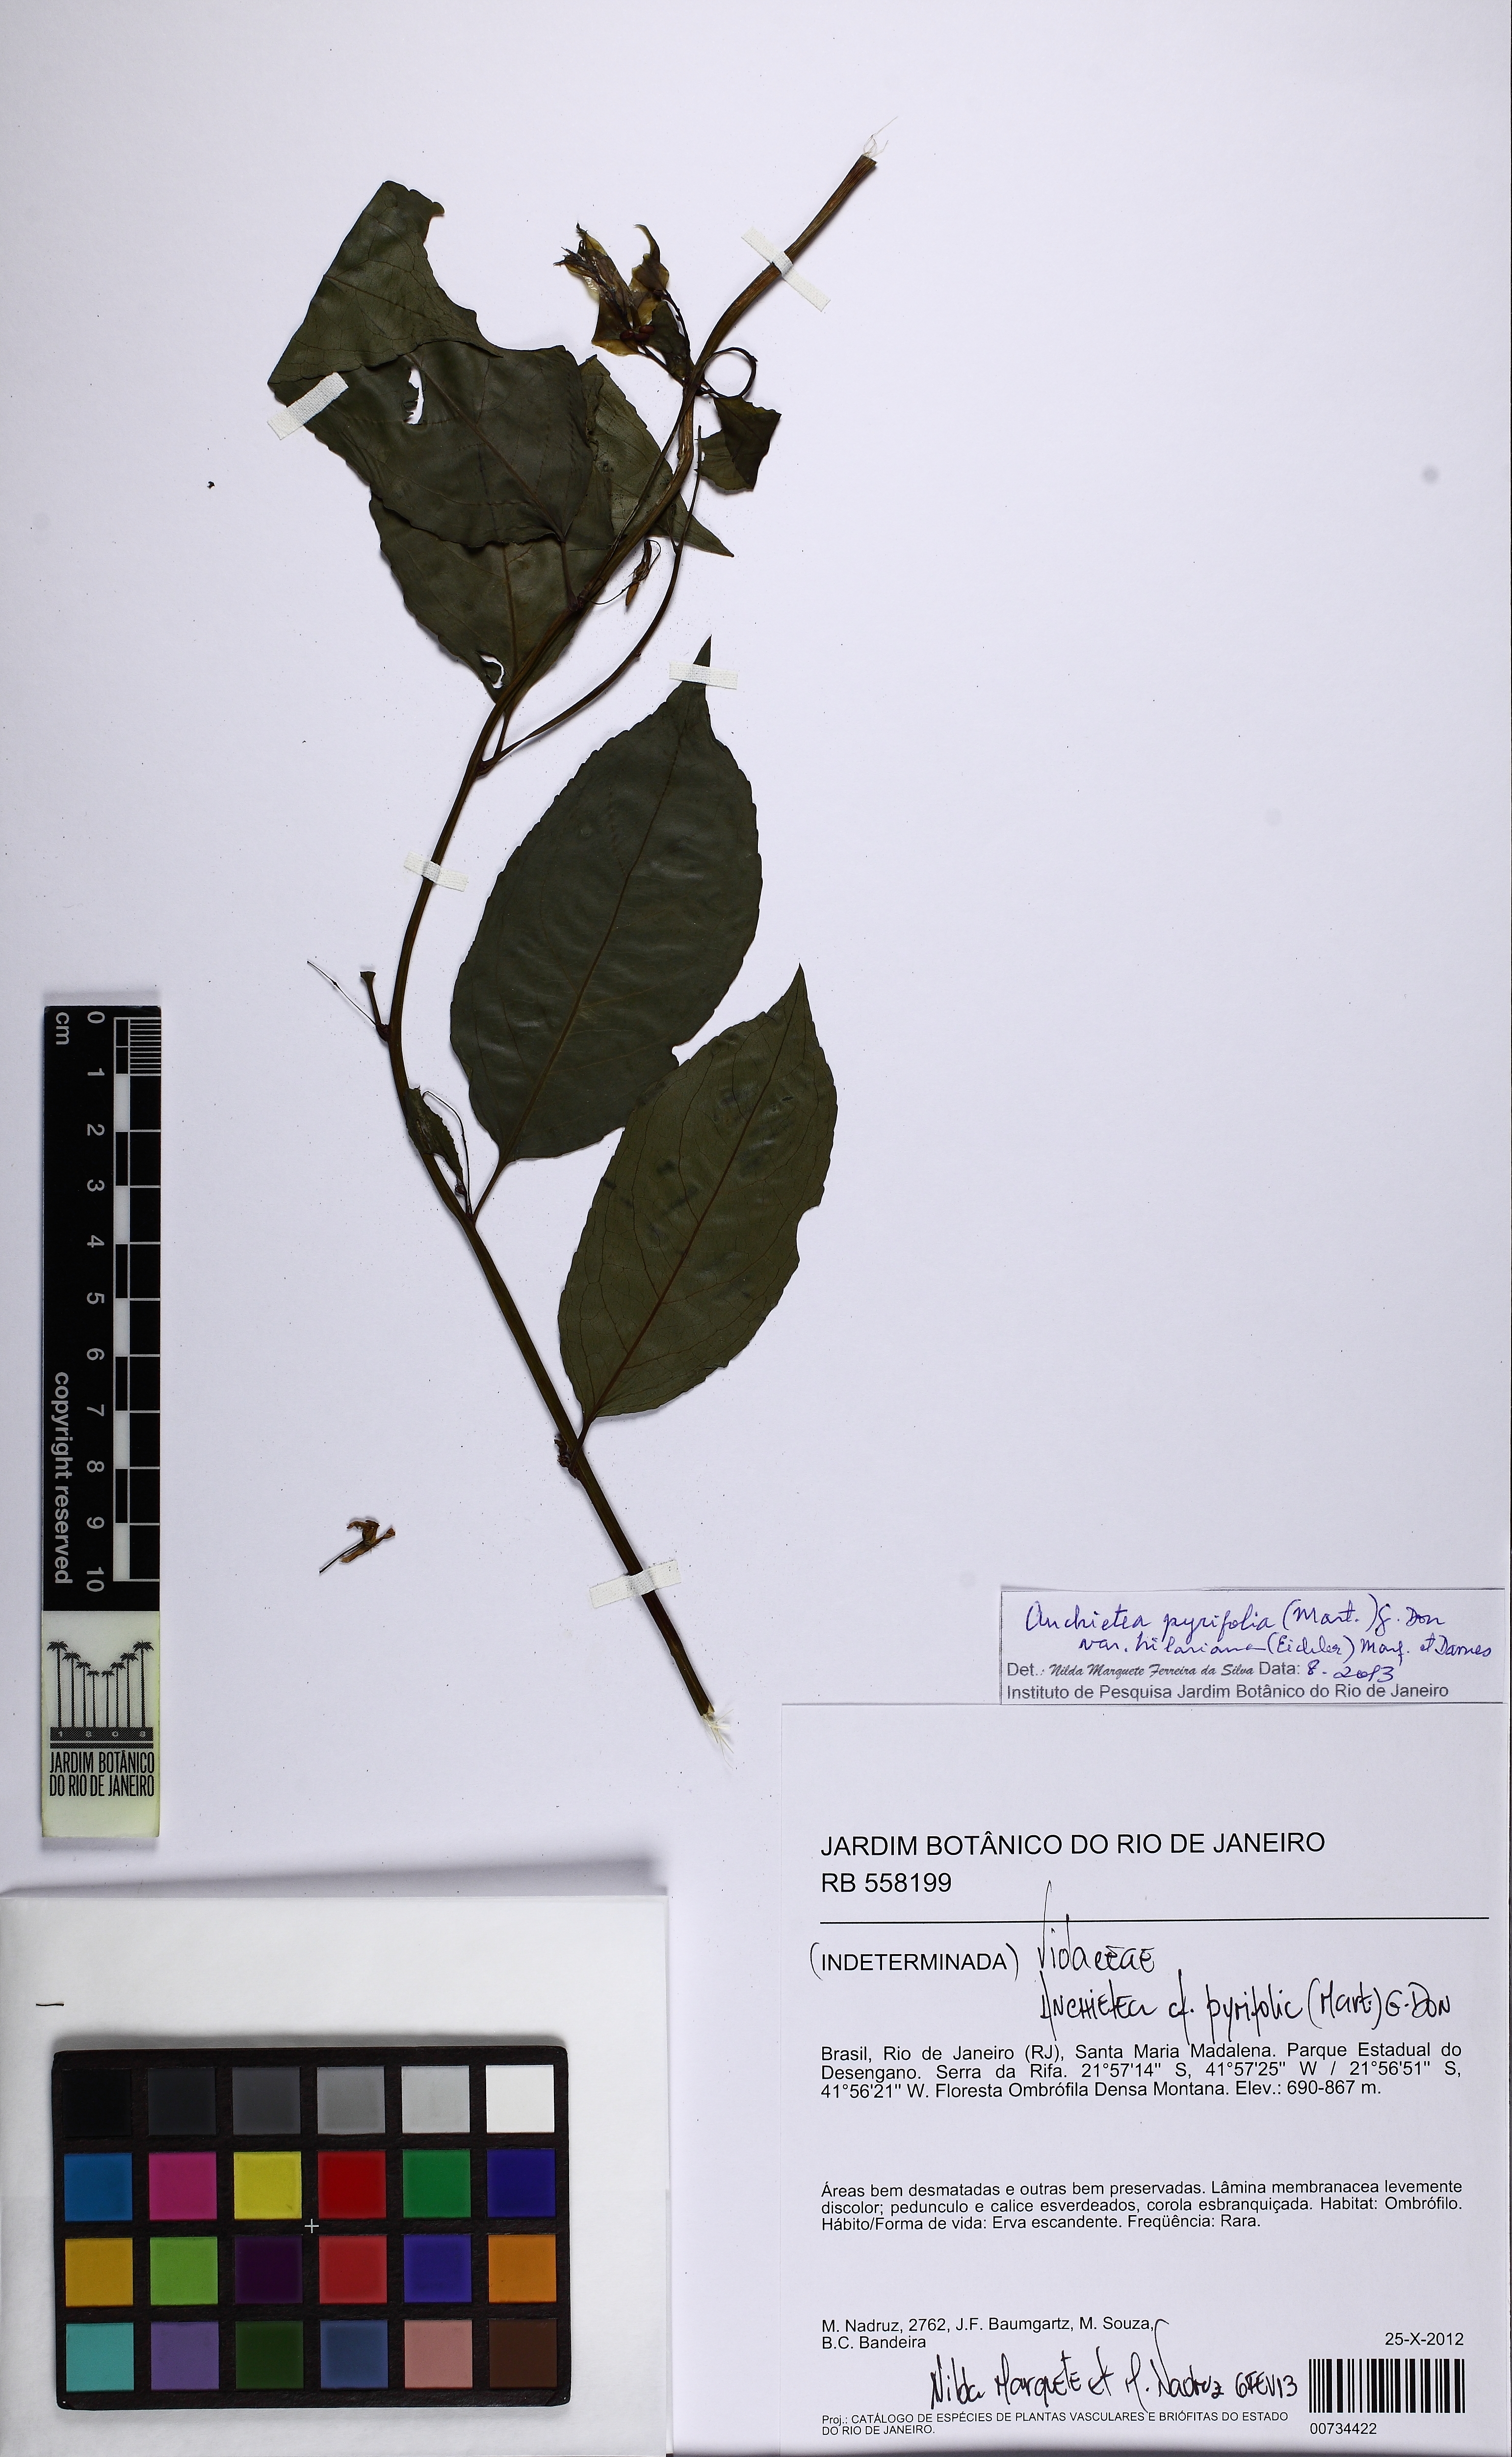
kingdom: Plantae
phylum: Tracheophyta
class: Magnoliopsida
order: Malpighiales
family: Violaceae
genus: Anchietea
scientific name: Anchietea pyrifolia
